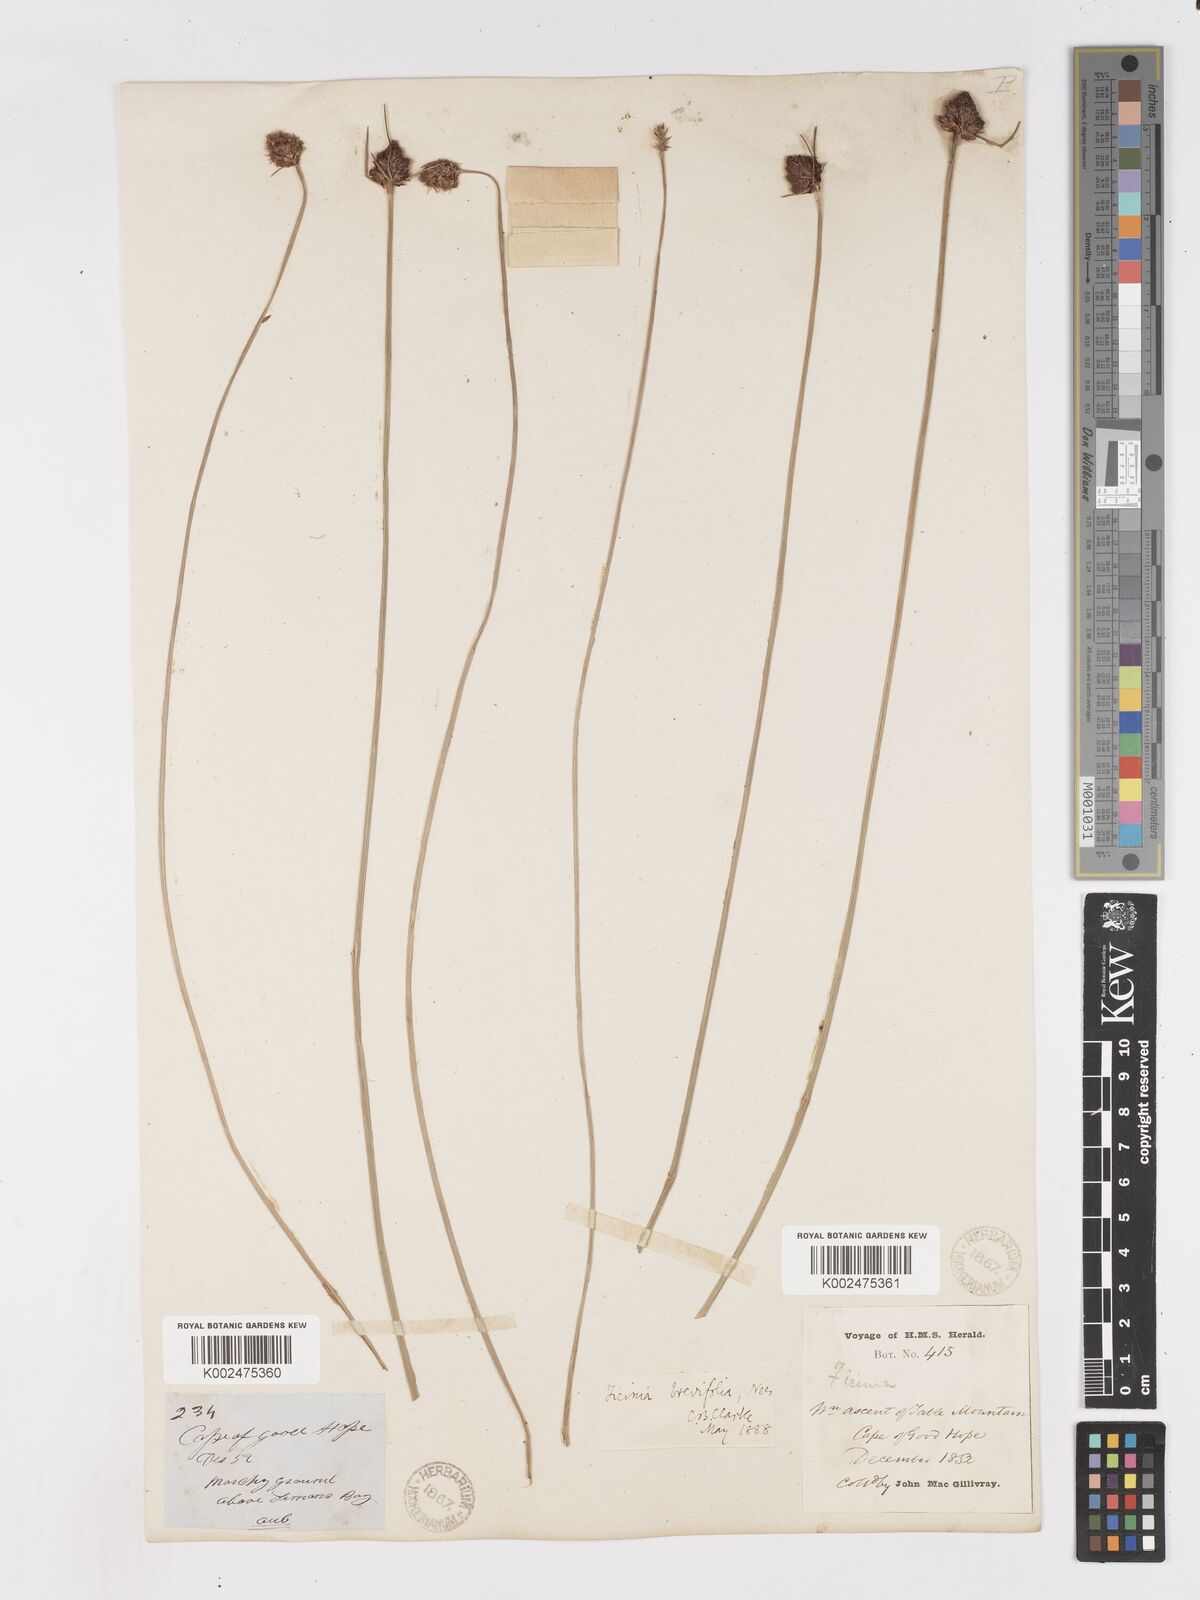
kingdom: Plantae
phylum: Tracheophyta
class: Liliopsida
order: Poales
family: Cyperaceae
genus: Ficinia
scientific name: Ficinia brevifolia
